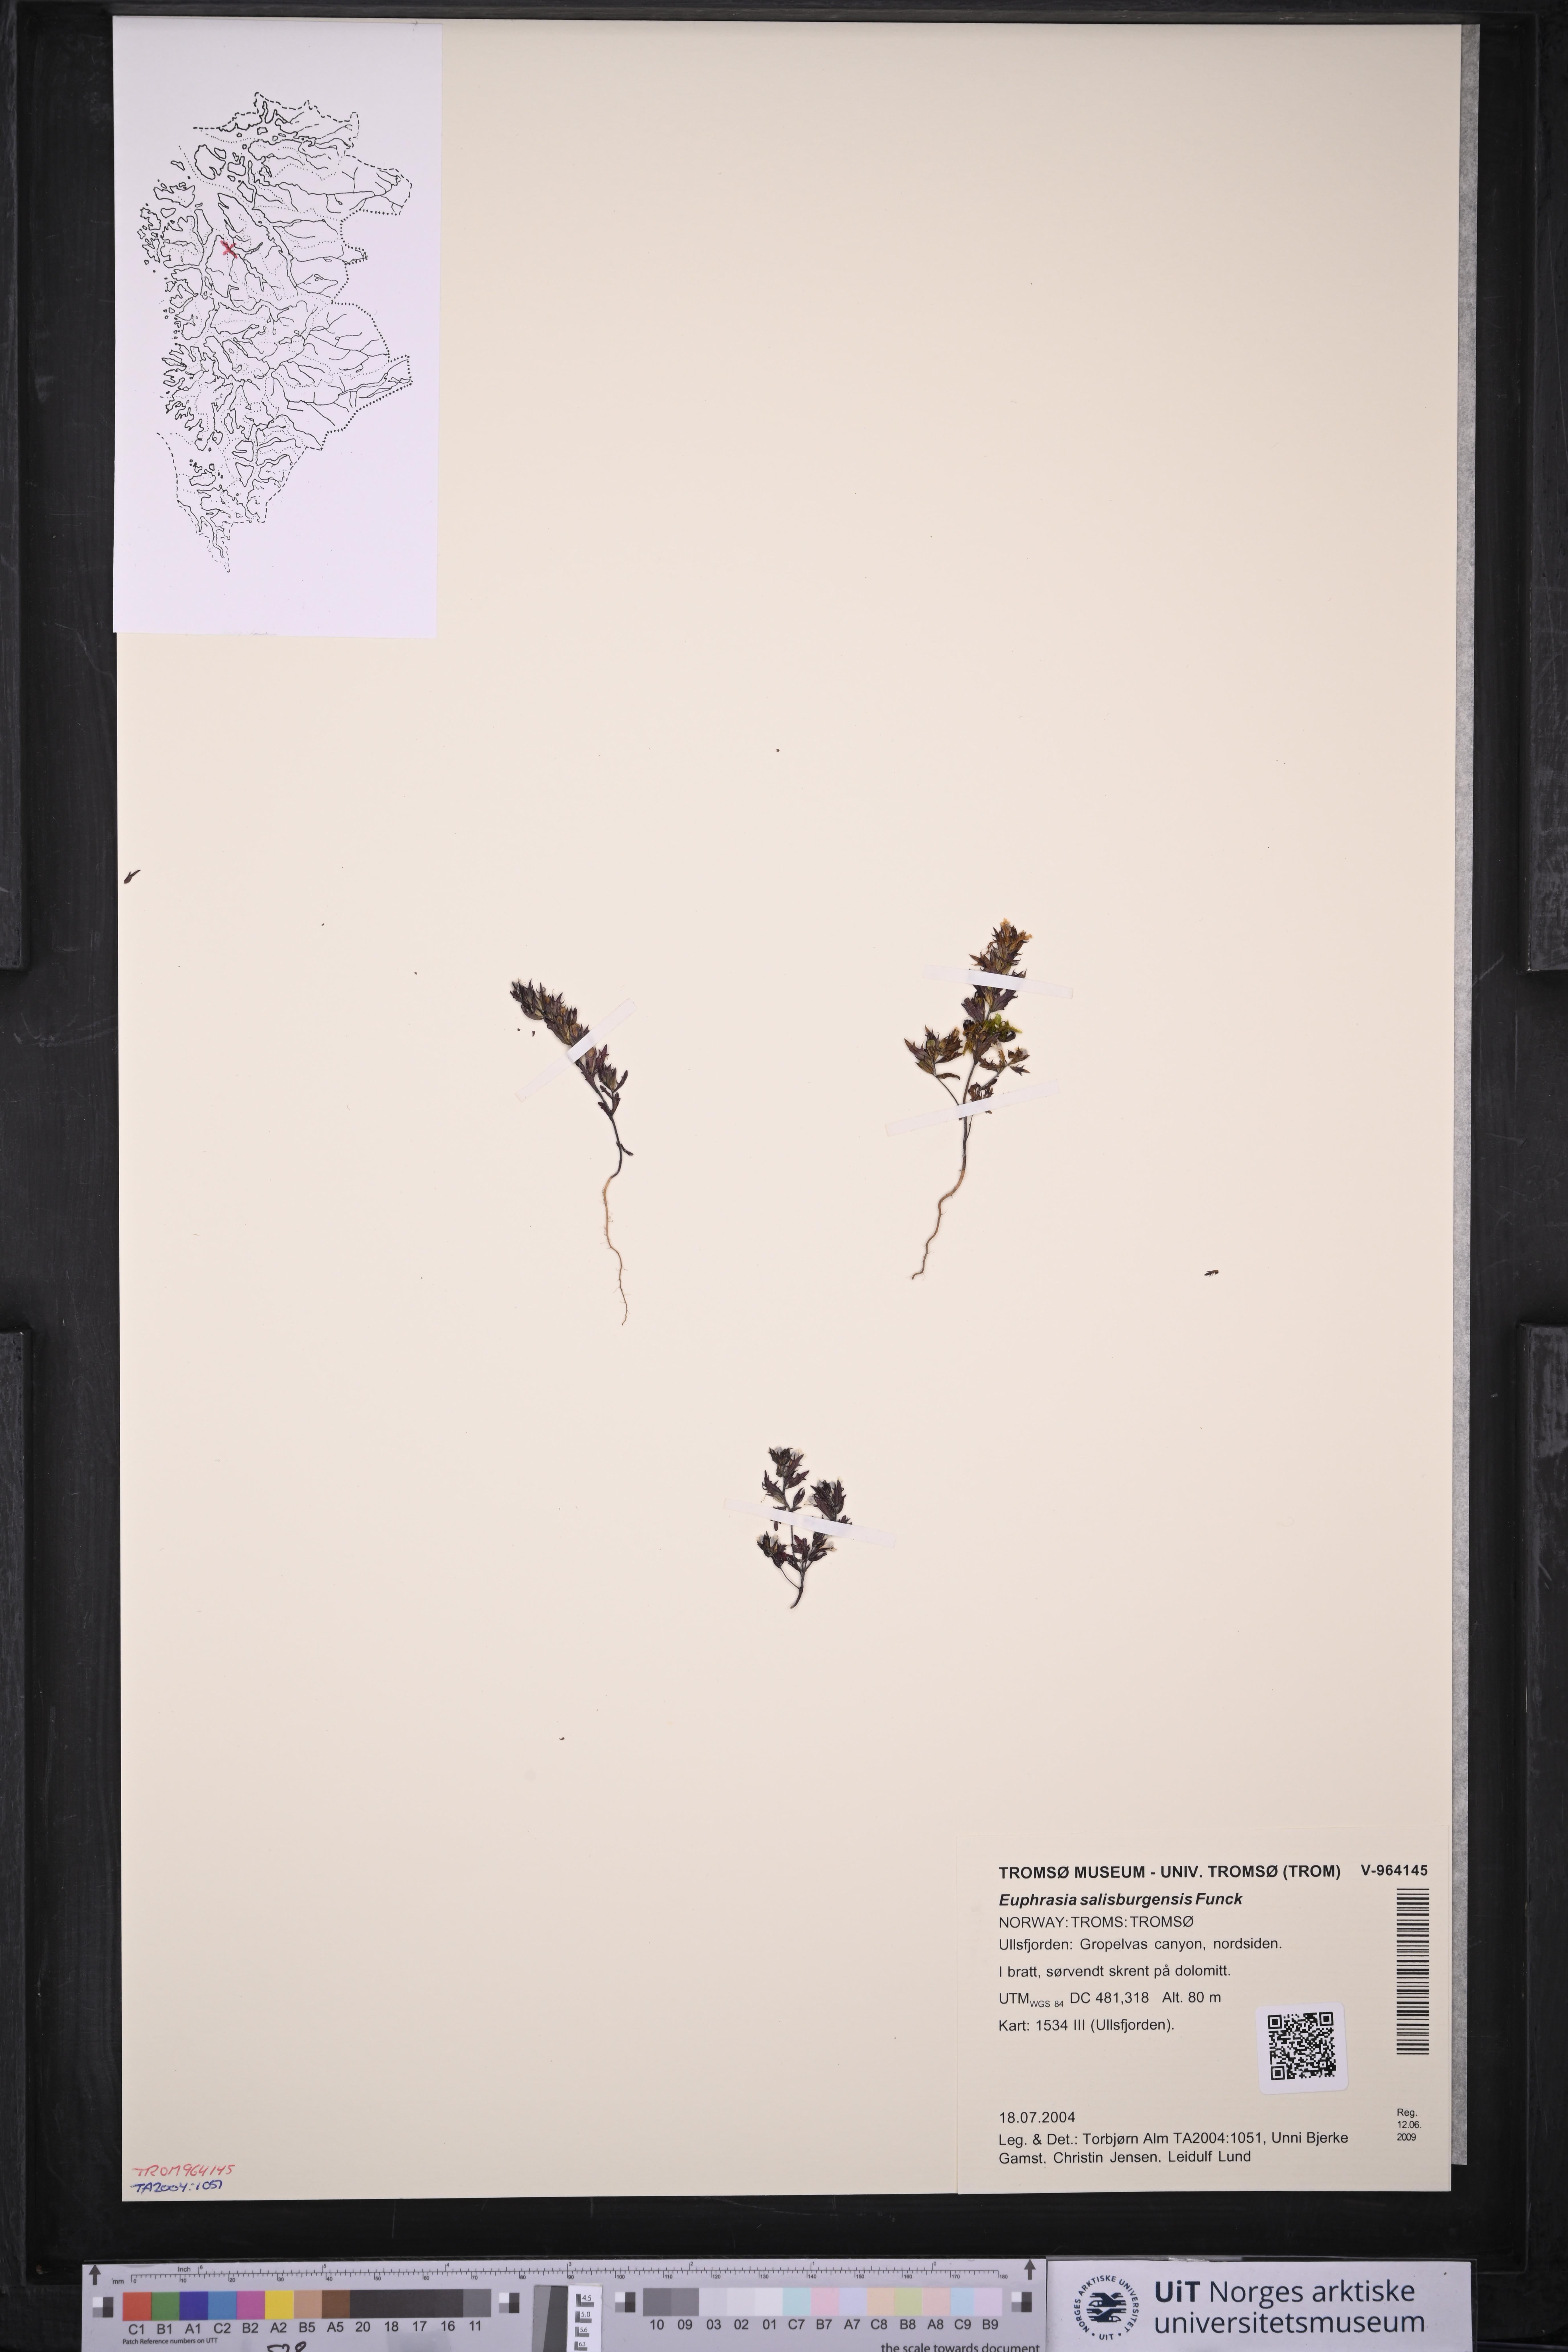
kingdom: Plantae
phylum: Tracheophyta
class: Magnoliopsida
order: Lamiales
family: Orobanchaceae
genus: Euphrasia
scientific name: Euphrasia salisburgensis
